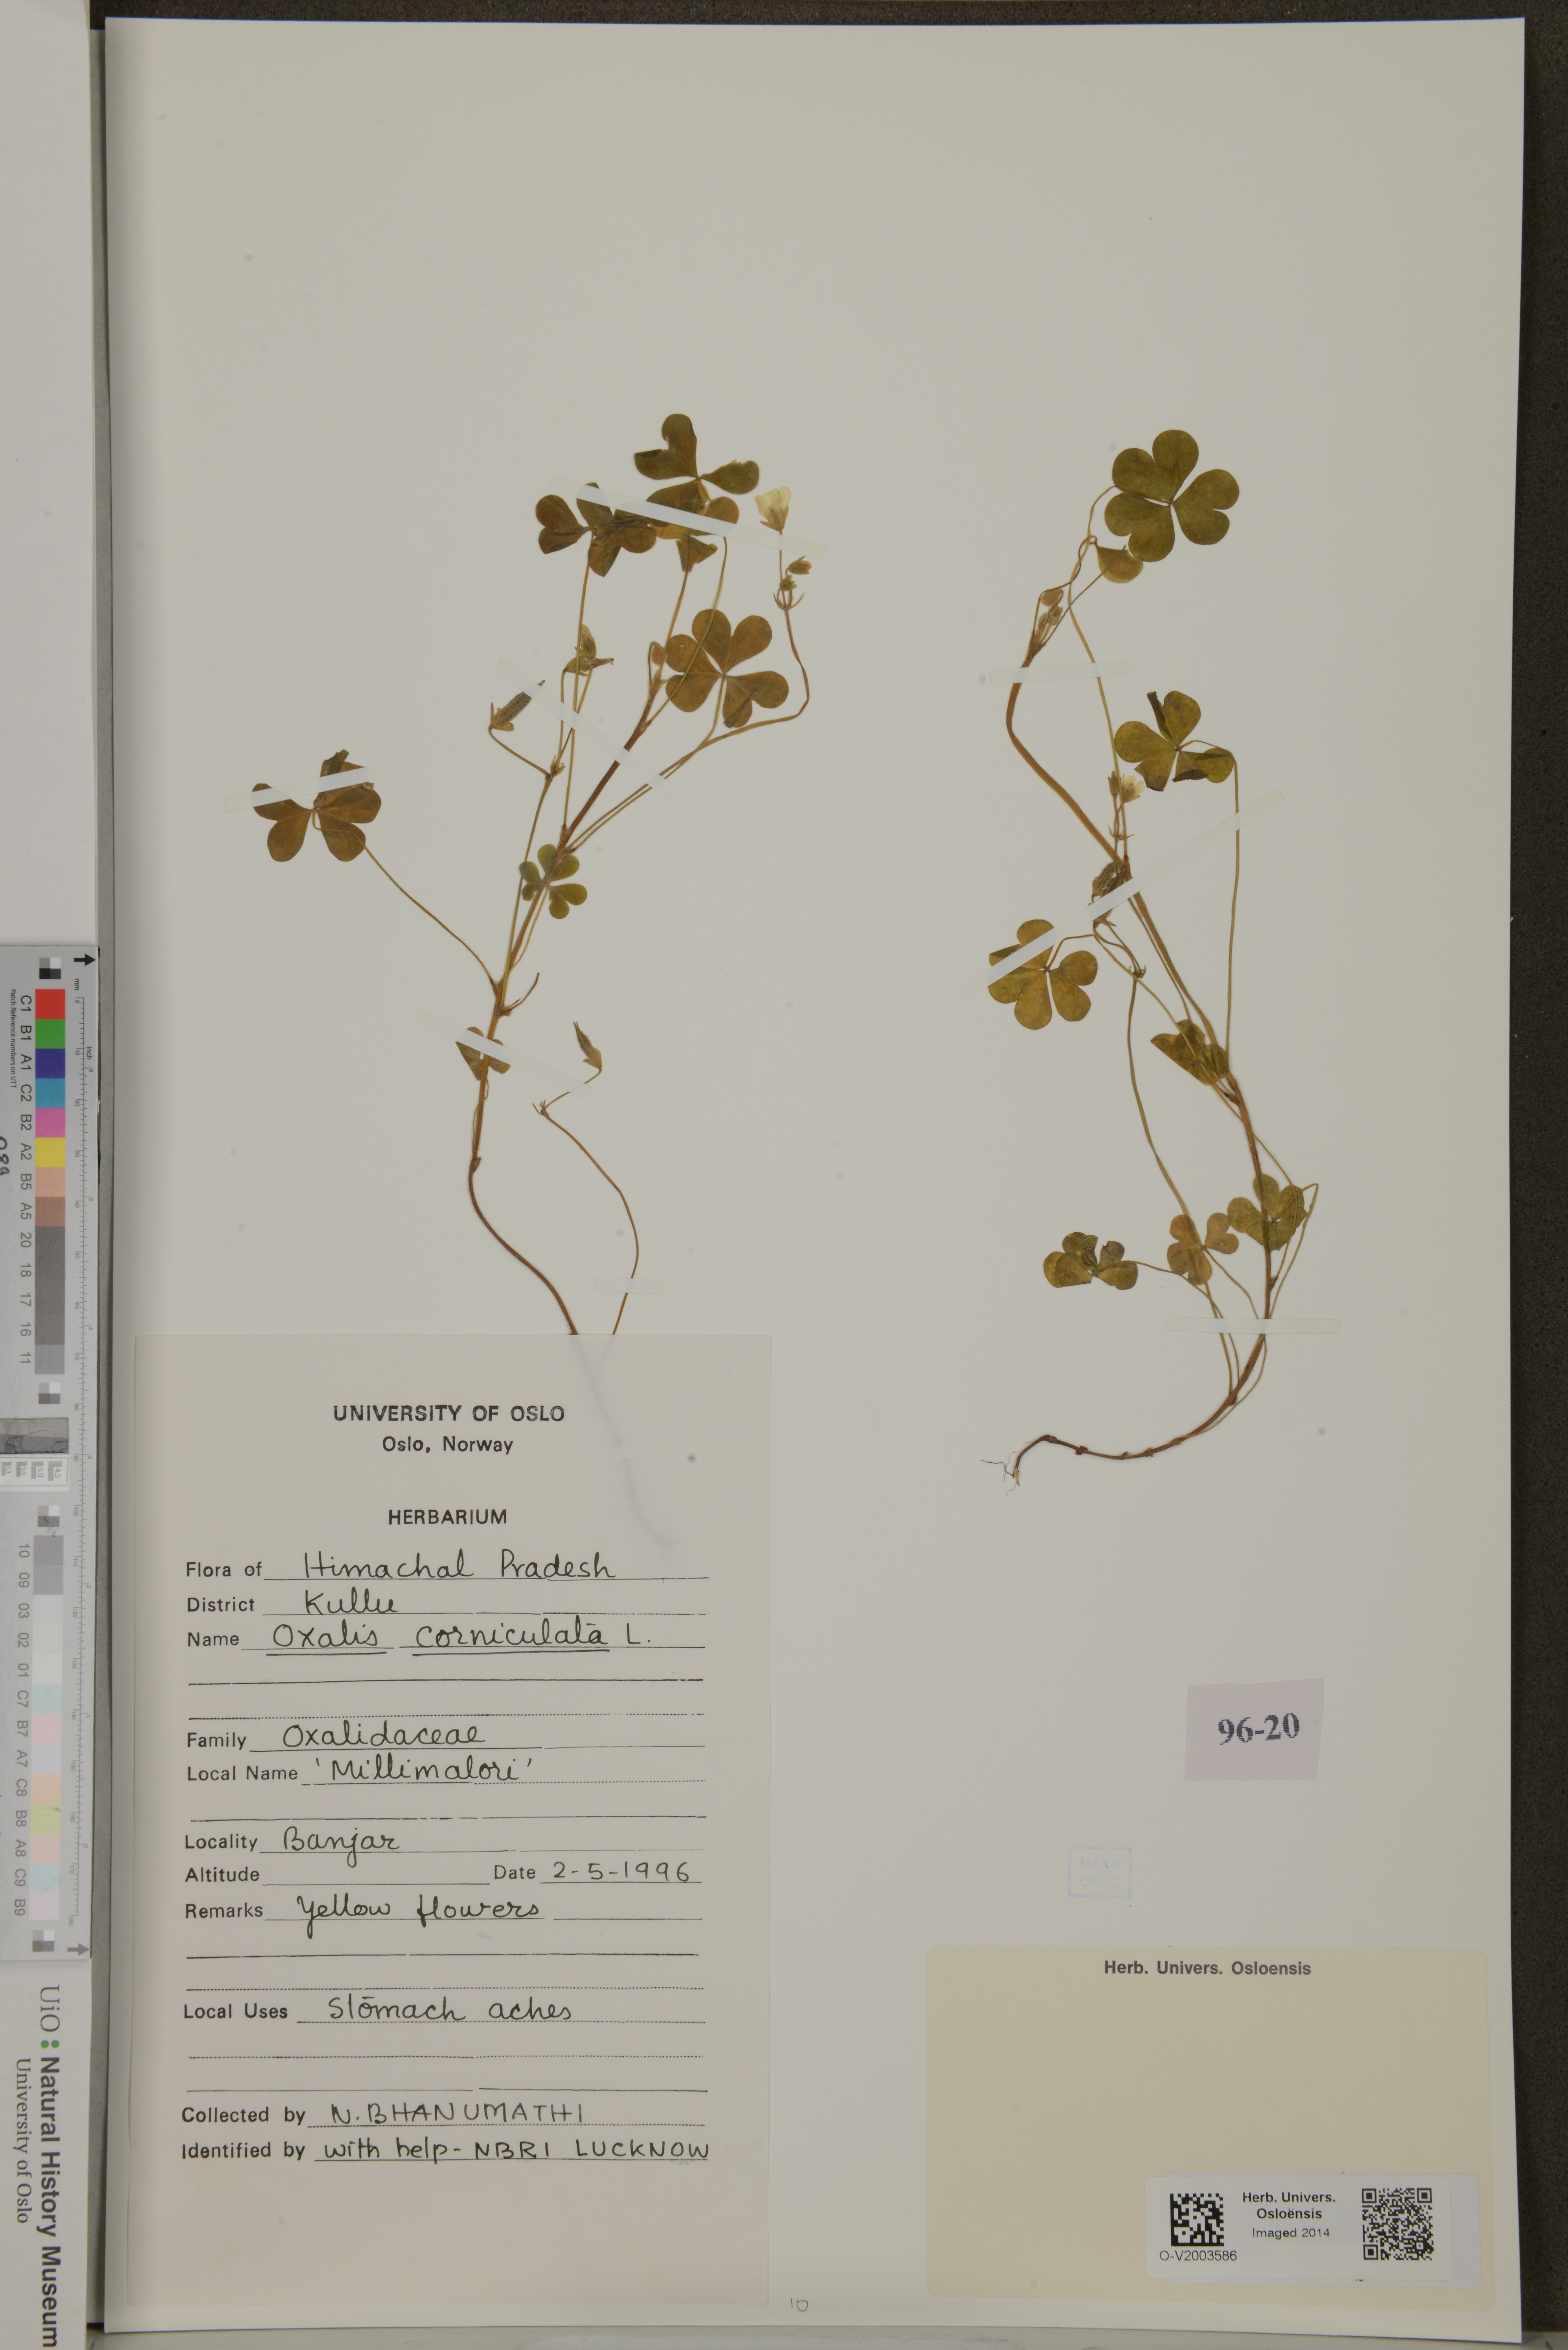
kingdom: Plantae
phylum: Tracheophyta
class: Magnoliopsida
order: Oxalidales
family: Oxalidaceae
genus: Oxalis
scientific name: Oxalis corniculata
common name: Procumbent yellow-sorrel
